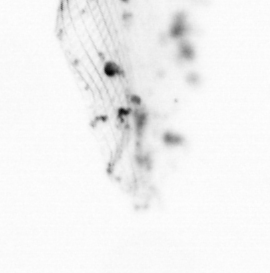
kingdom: Chromista
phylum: Ochrophyta
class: Bacillariophyceae
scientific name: Bacillariophyceae
